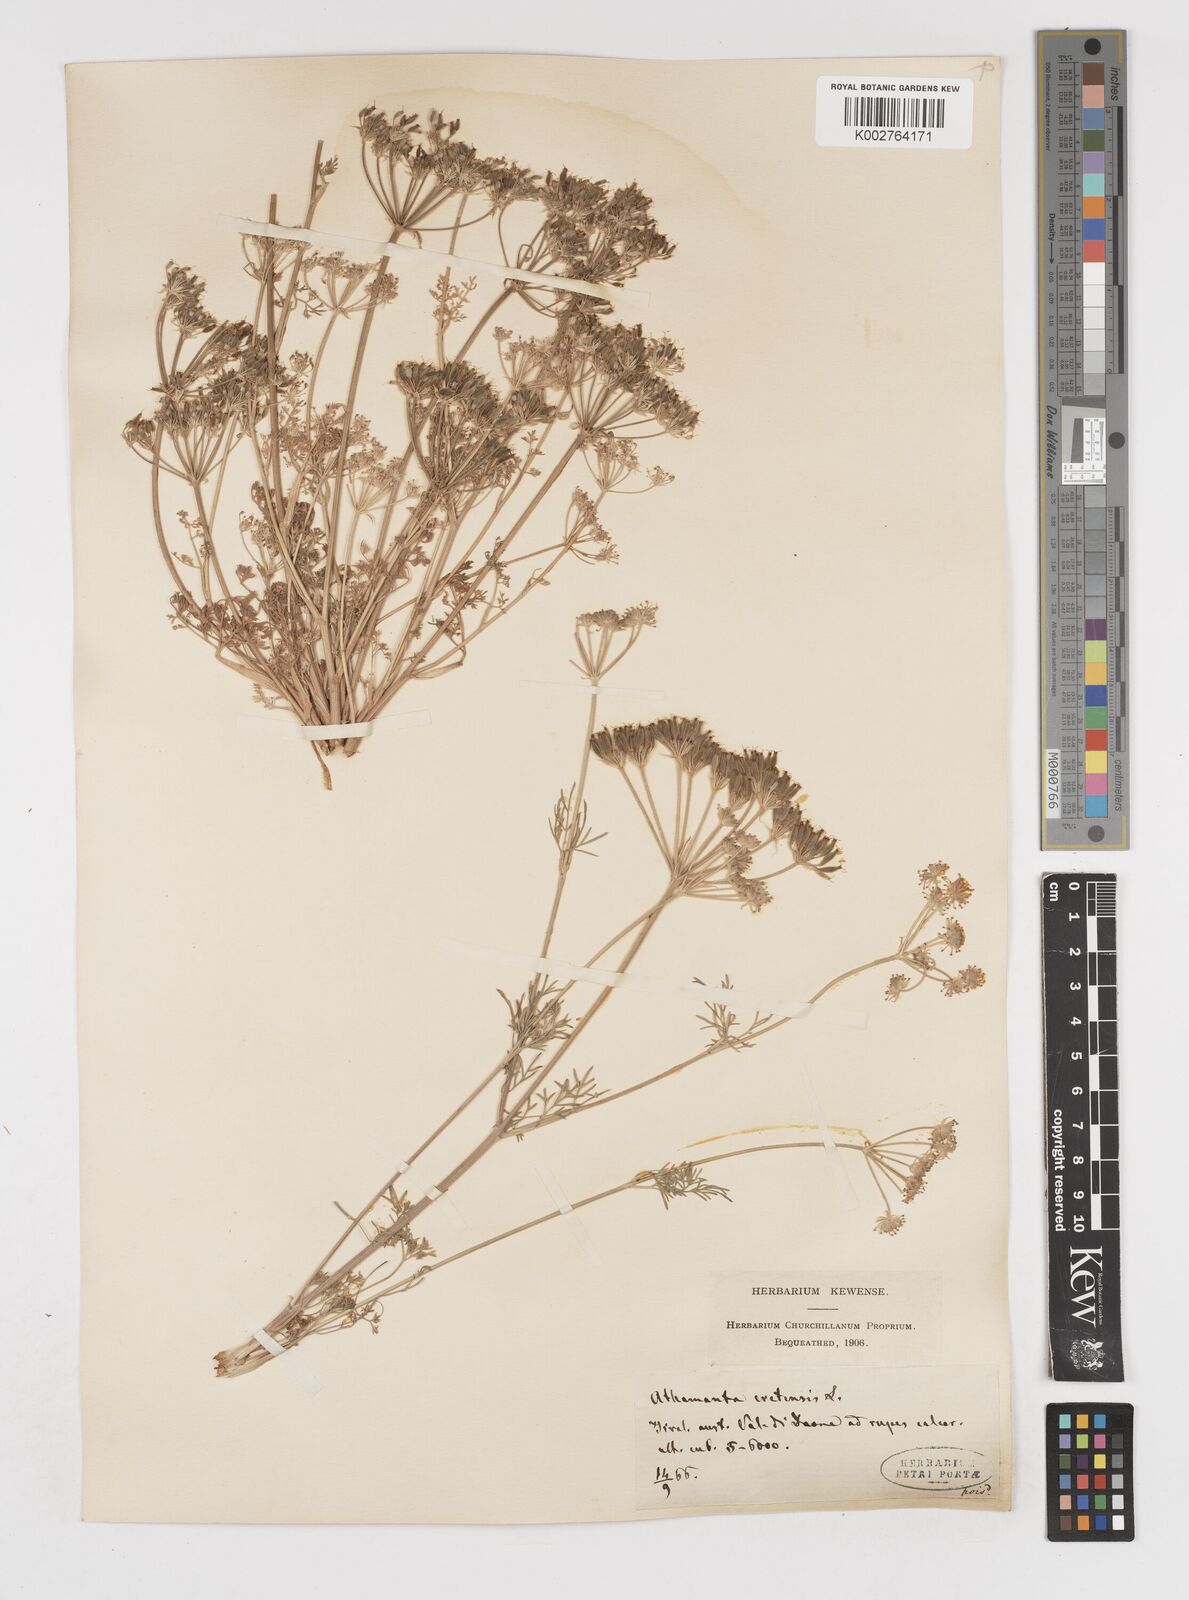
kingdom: Plantae
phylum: Tracheophyta
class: Magnoliopsida
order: Apiales
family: Apiaceae
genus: Athamanta
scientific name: Athamanta cretensis
